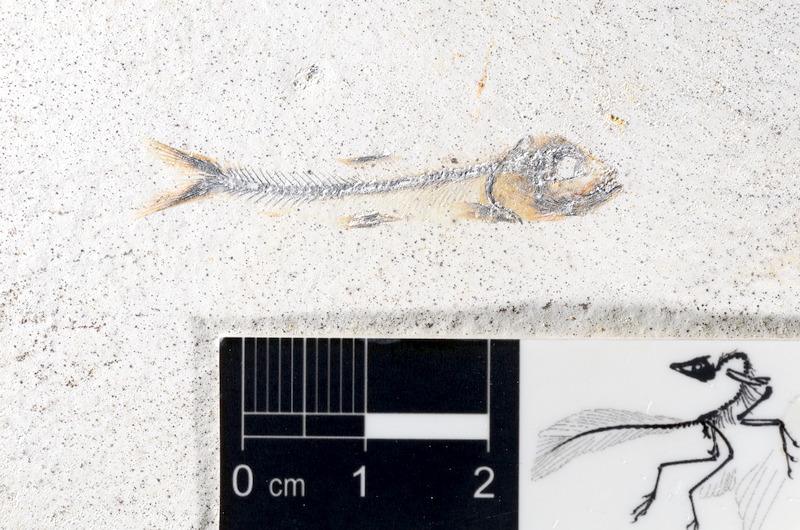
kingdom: Animalia
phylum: Chordata
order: Salmoniformes
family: Orthogonikleithridae
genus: Orthogonikleithrus
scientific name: Orthogonikleithrus hoelli
